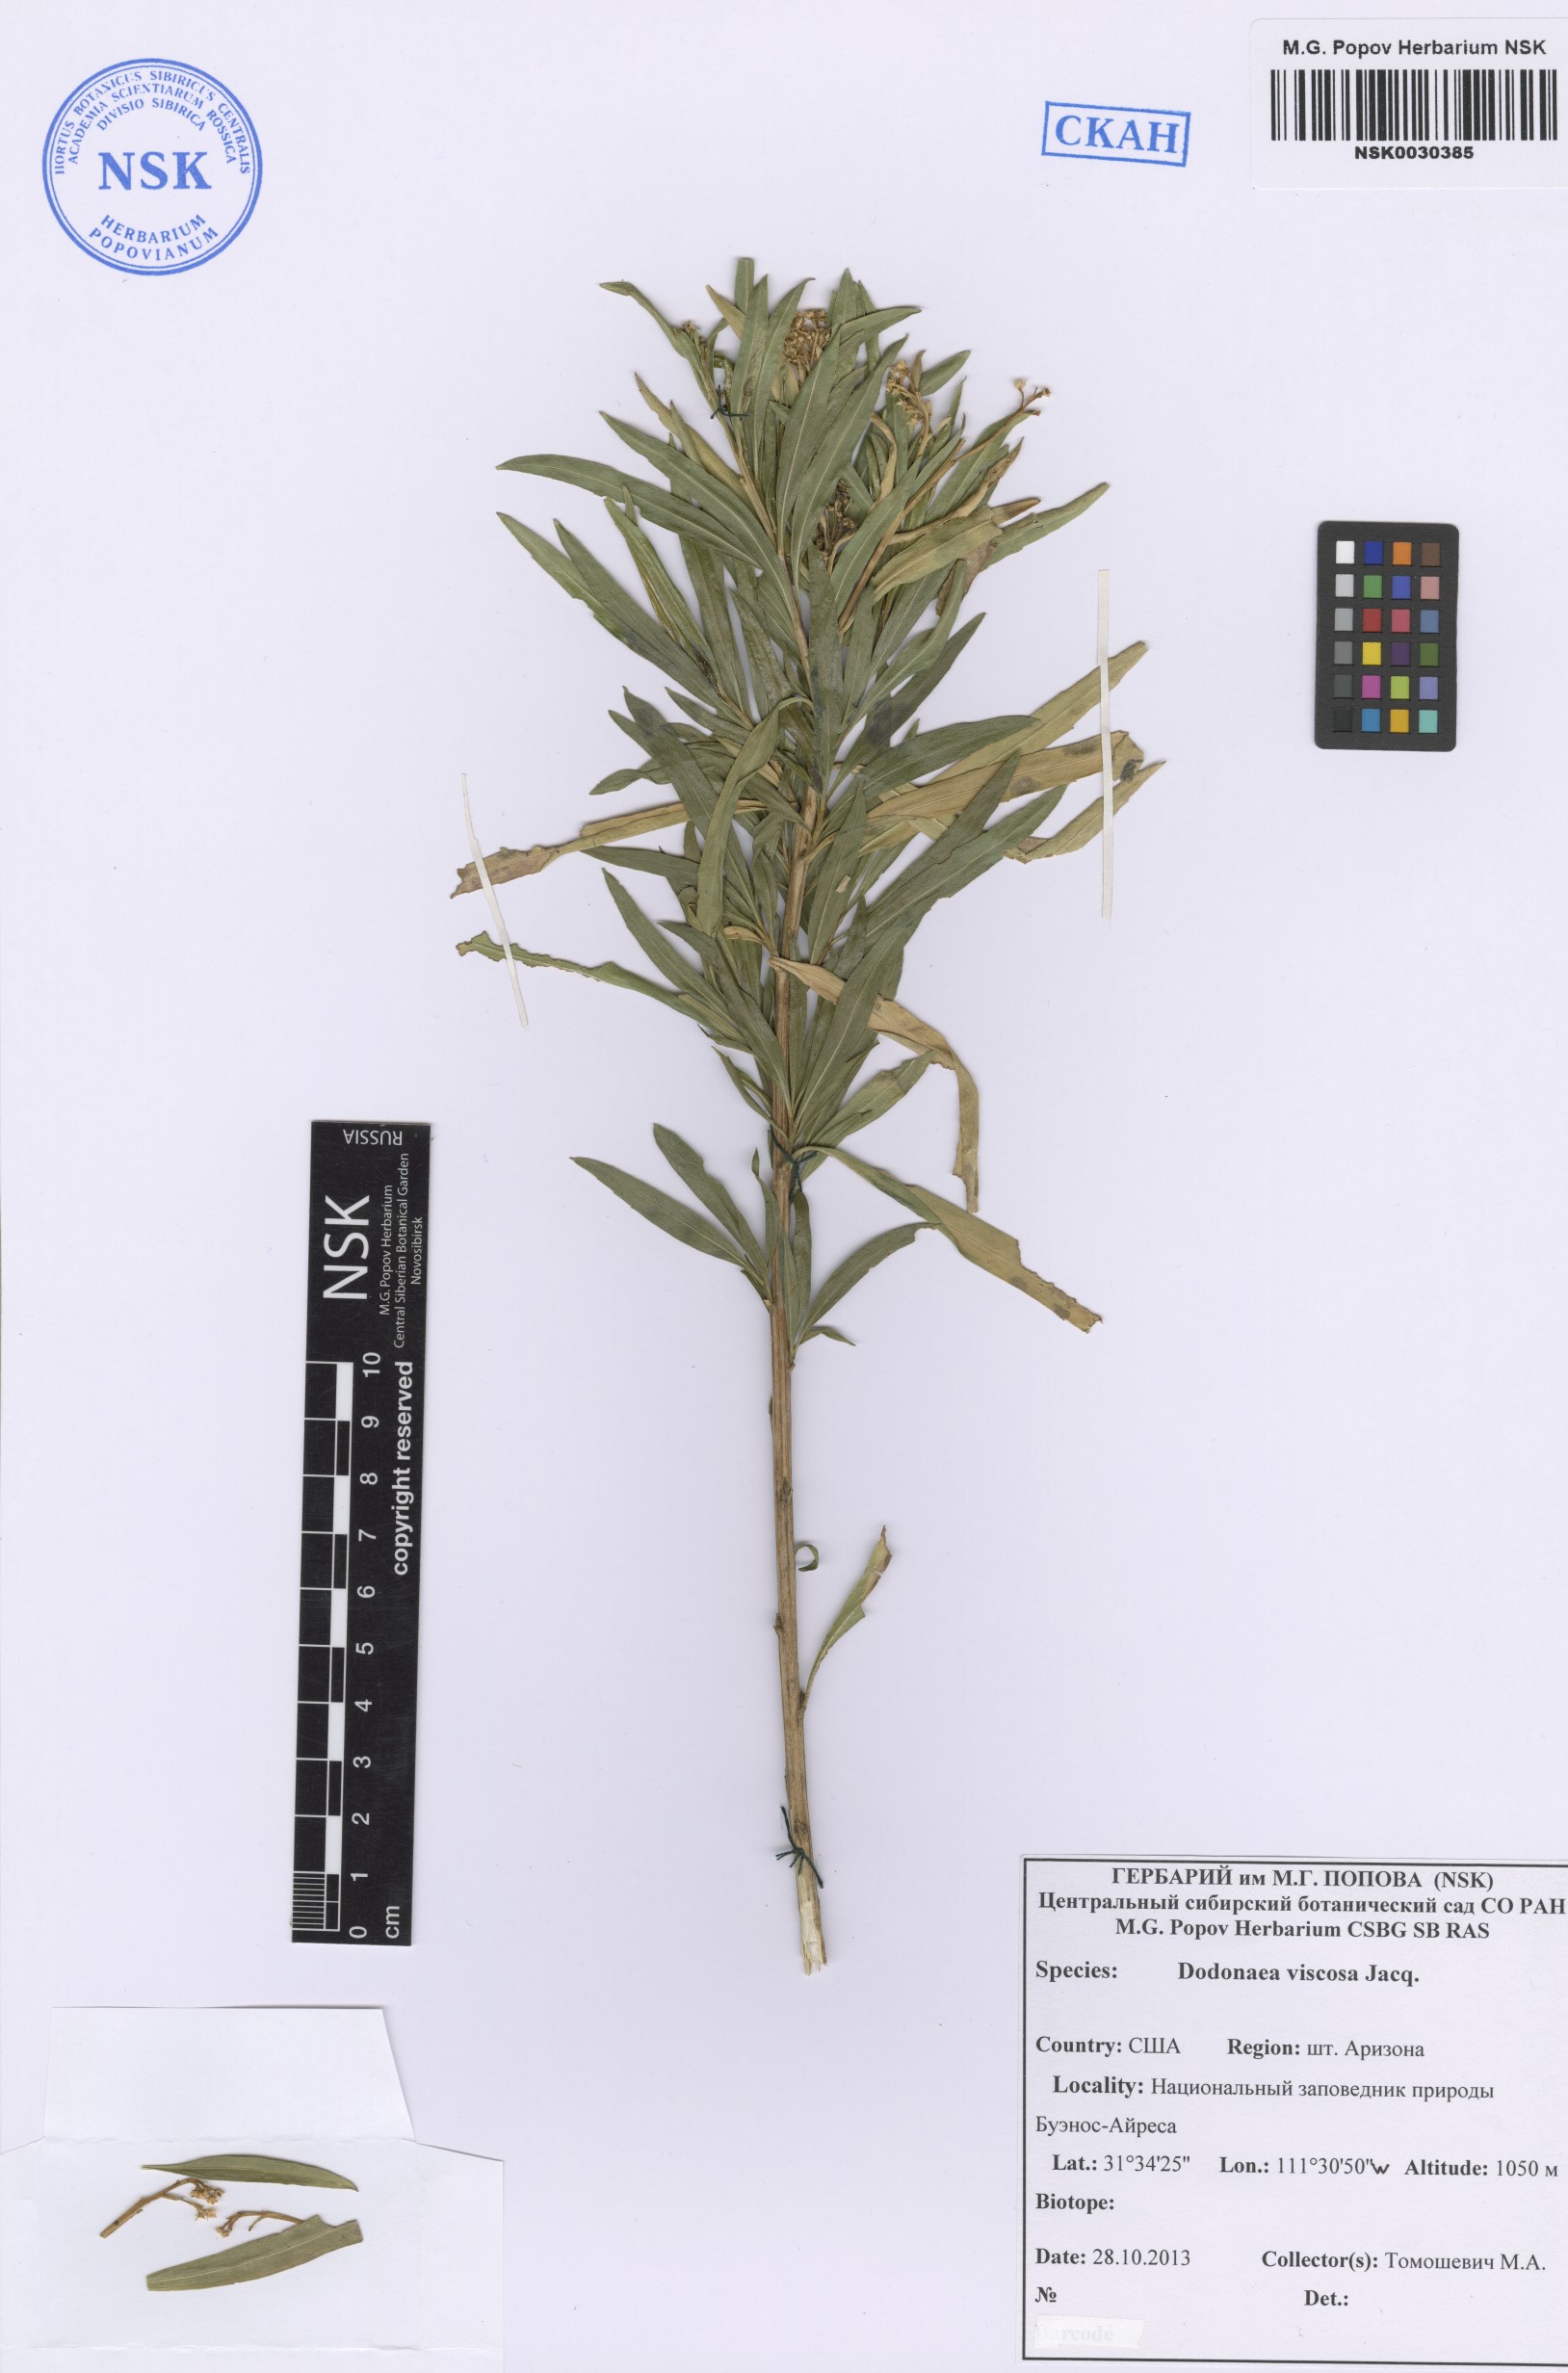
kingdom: Plantae
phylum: Tracheophyta
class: Magnoliopsida
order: Sapindales
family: Sapindaceae
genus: Dodonaea
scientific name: Dodonaea viscosa
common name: Hopbush
